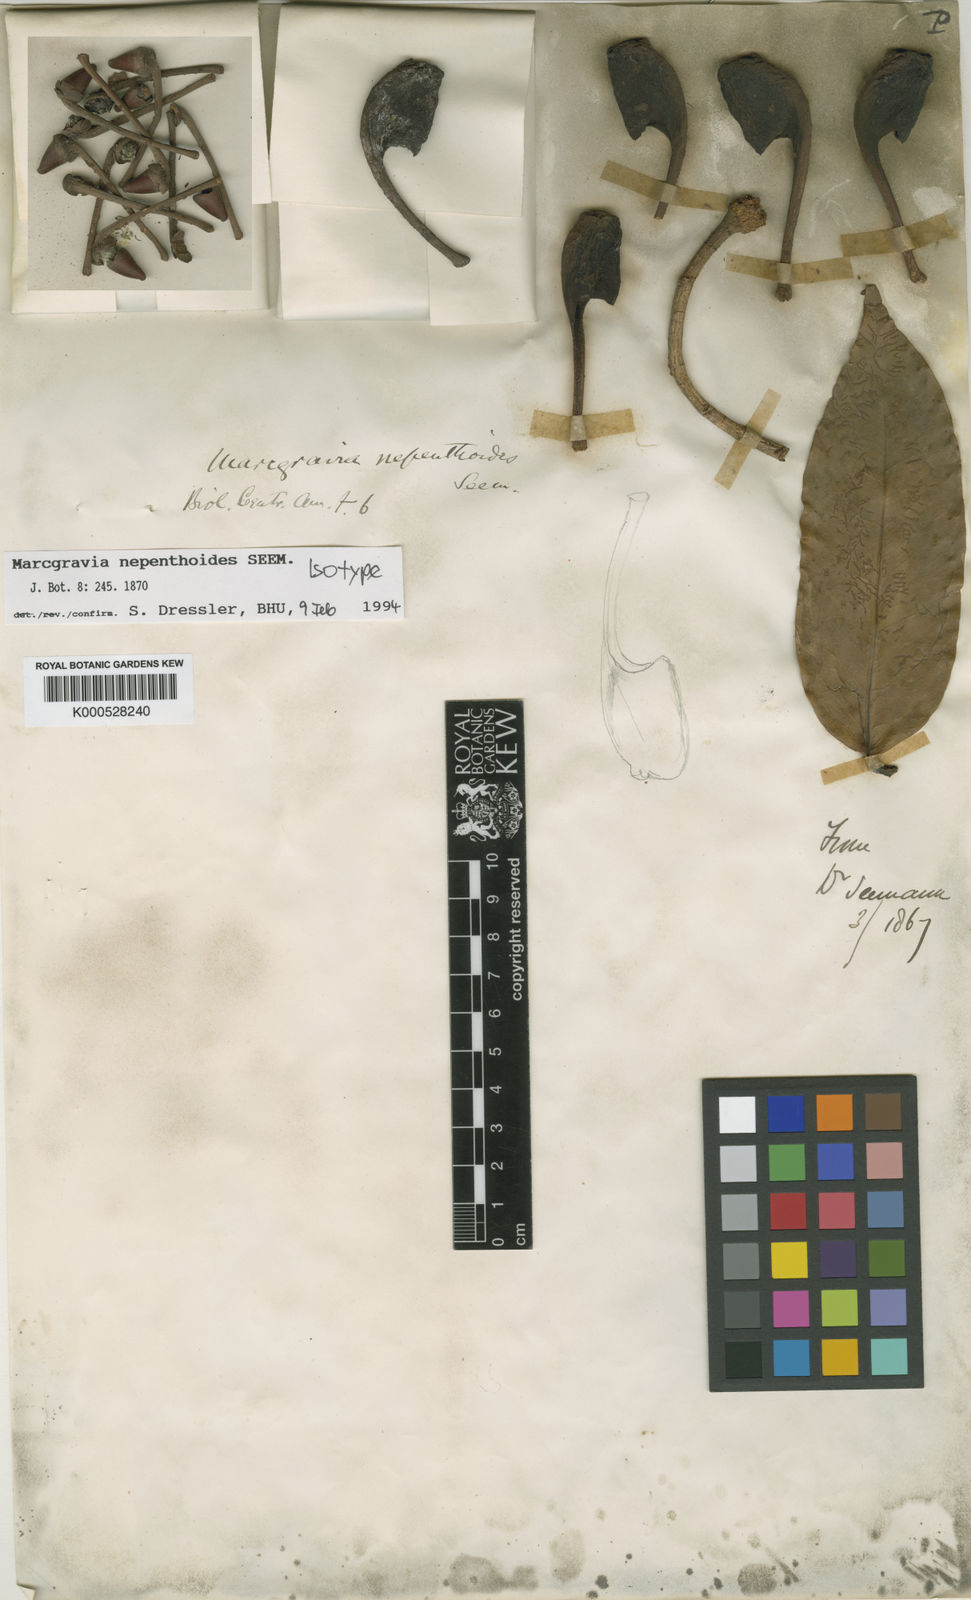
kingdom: Plantae
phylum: Tracheophyta
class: Magnoliopsida
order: Ericales
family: Marcgraviaceae
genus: Marcgravia
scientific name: Marcgravia nepenthoides
